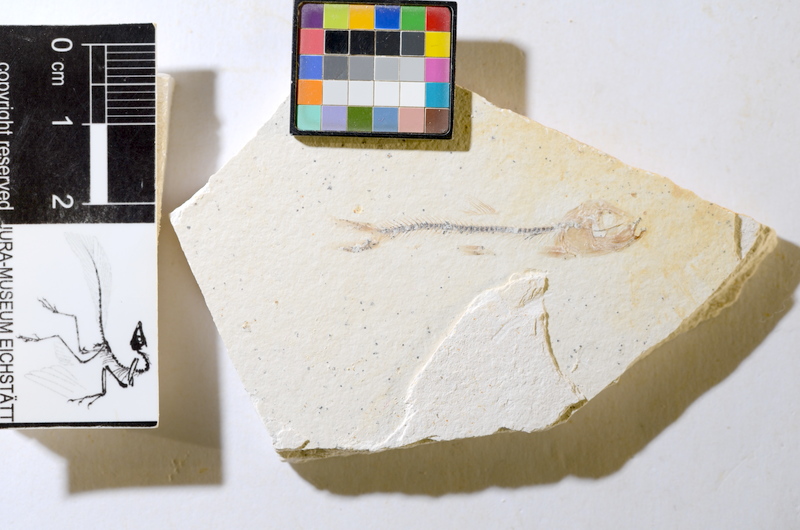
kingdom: Animalia
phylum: Chordata
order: Salmoniformes
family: Orthogonikleithridae
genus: Orthogonikleithrus
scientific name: Orthogonikleithrus hoelli
